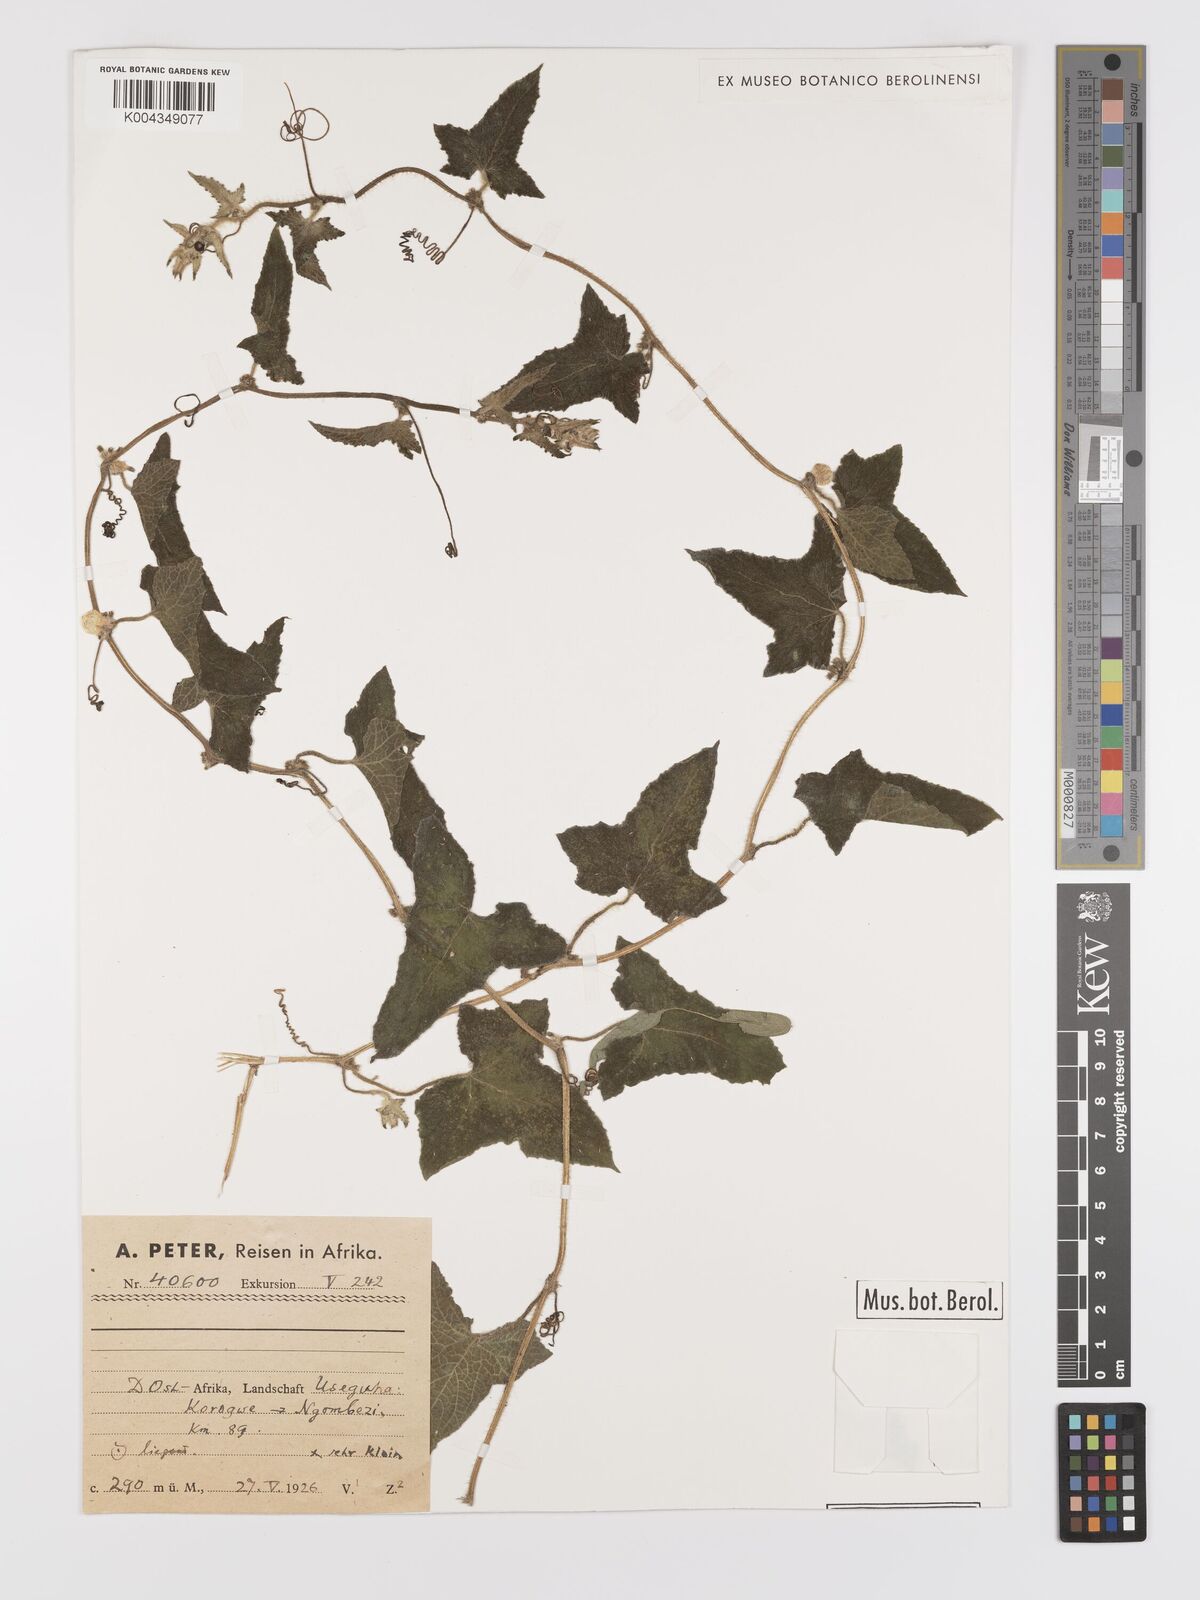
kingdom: Plantae
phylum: Tracheophyta
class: Magnoliopsida
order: Cucurbitales
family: Cucurbitaceae
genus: Cucumis
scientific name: Cucumis maderaspatanus
